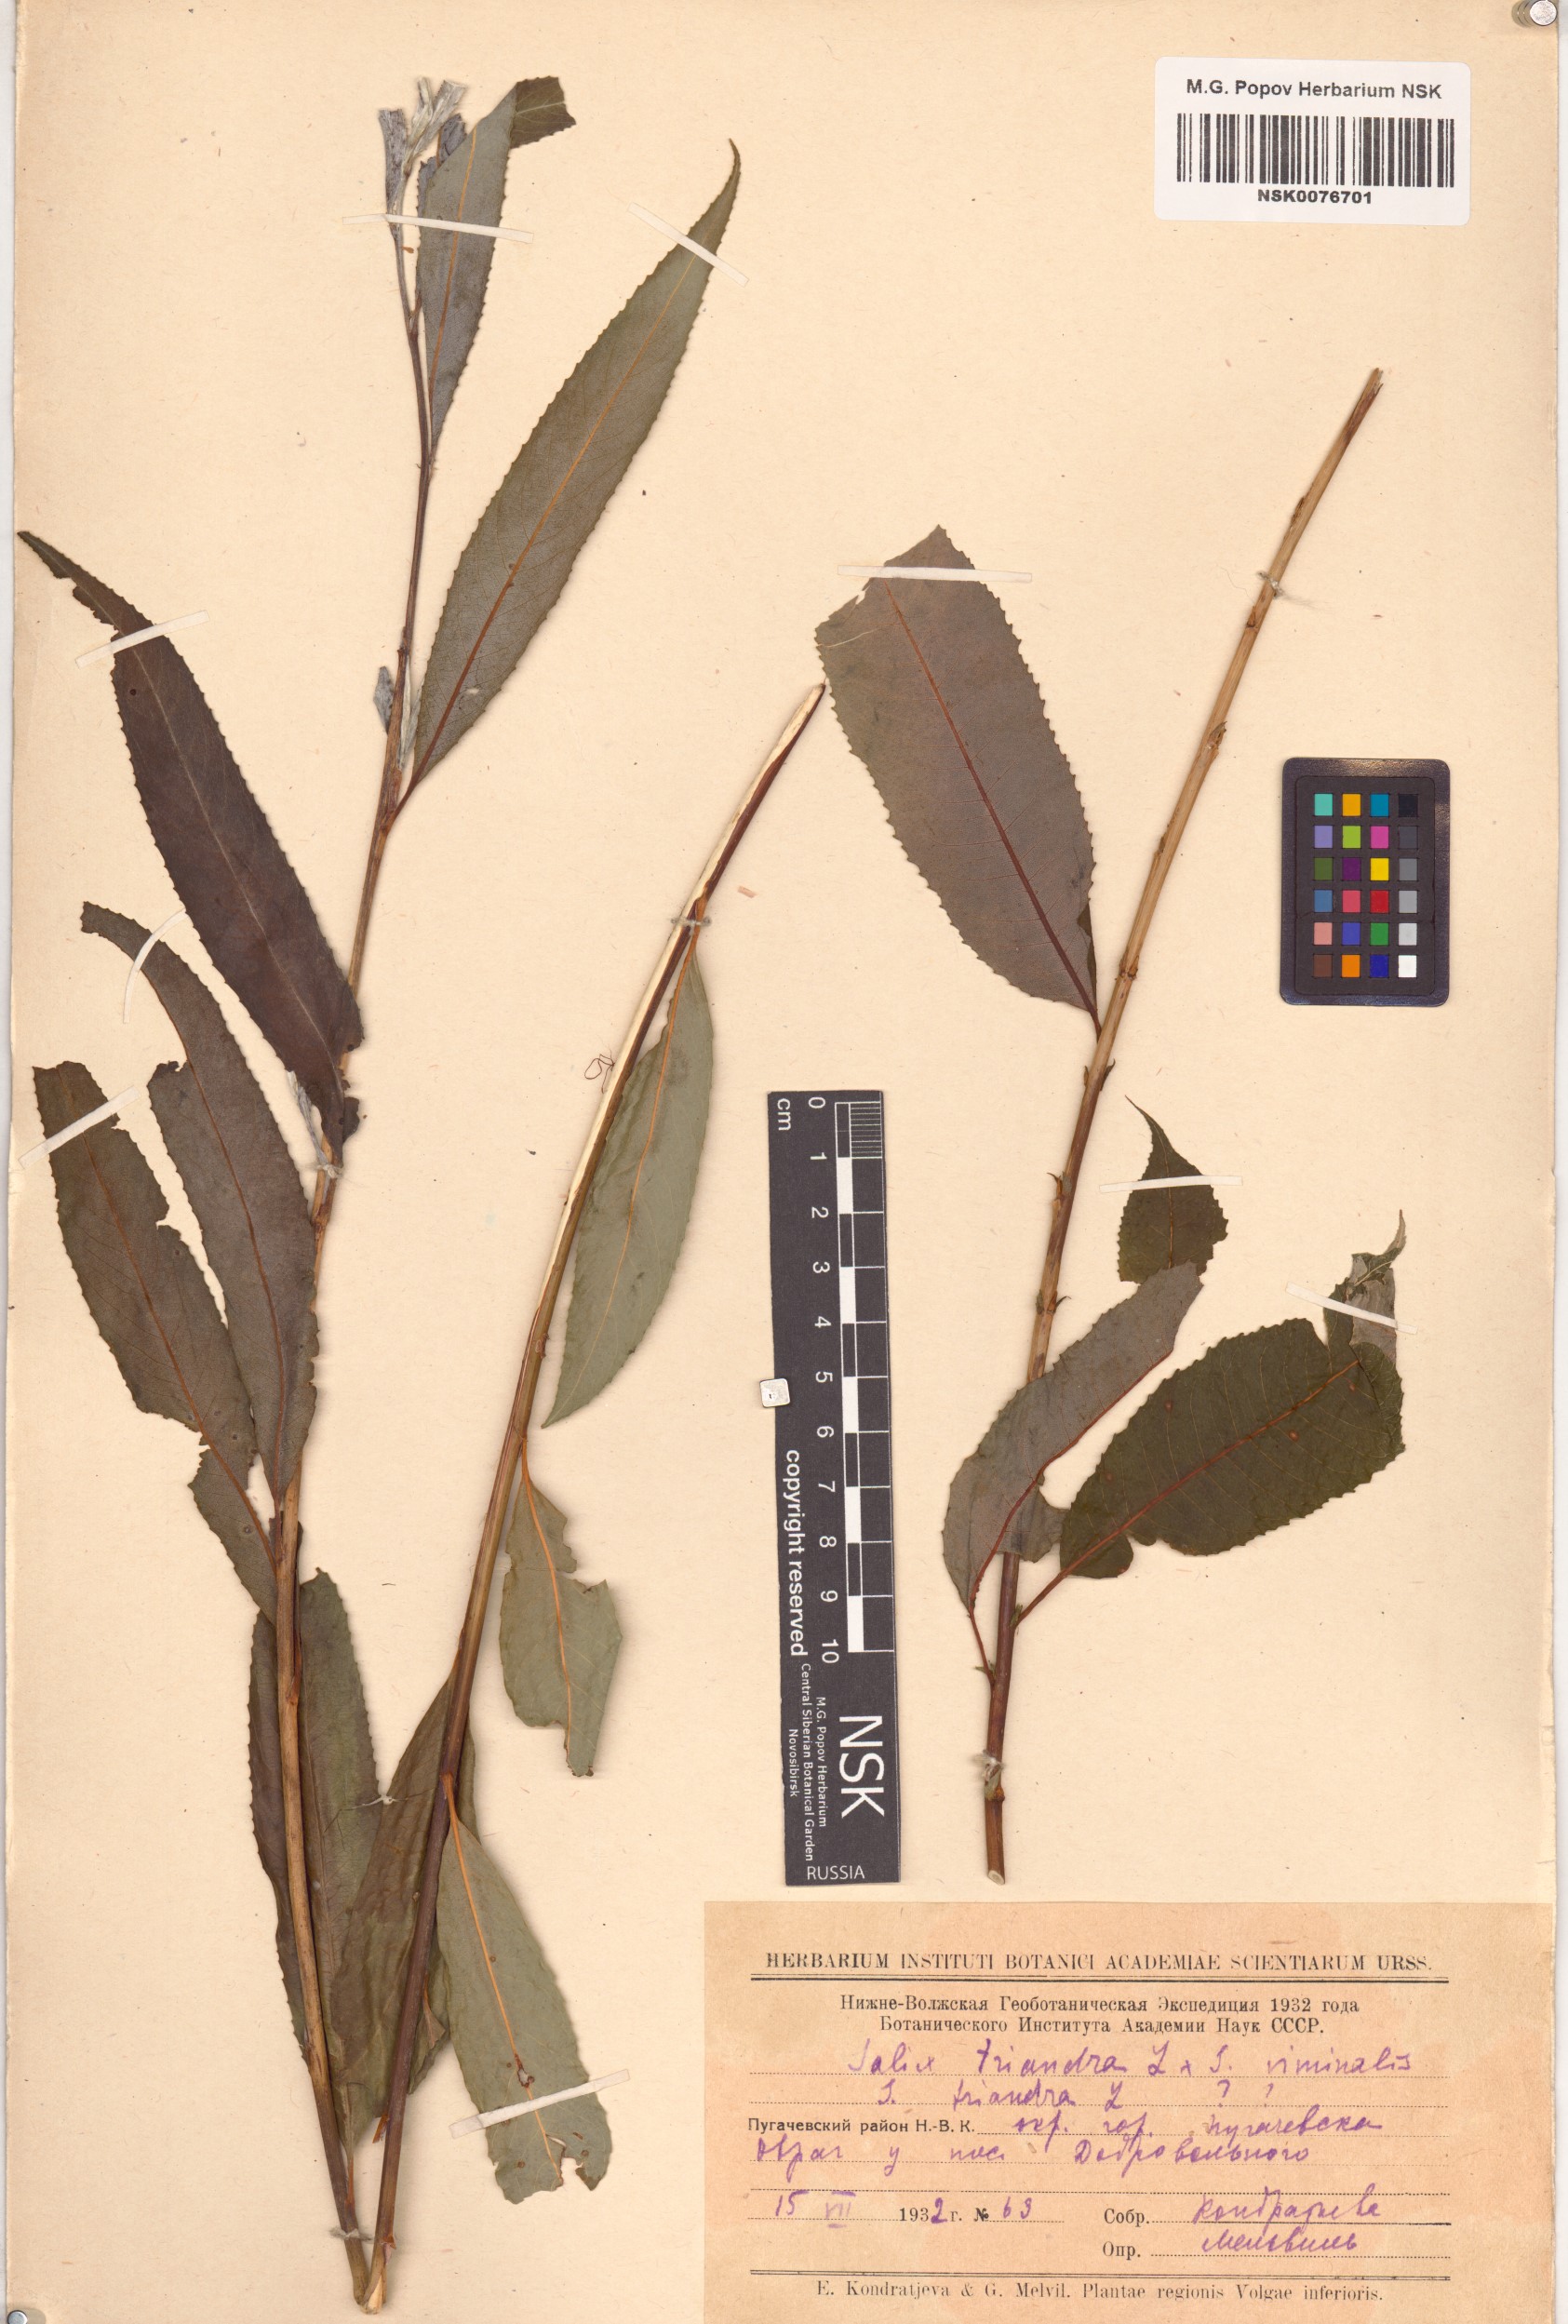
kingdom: Plantae
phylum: Tracheophyta
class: Magnoliopsida
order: Malpighiales
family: Salicaceae
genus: Salix
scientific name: Salix triandra
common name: Almond willow
